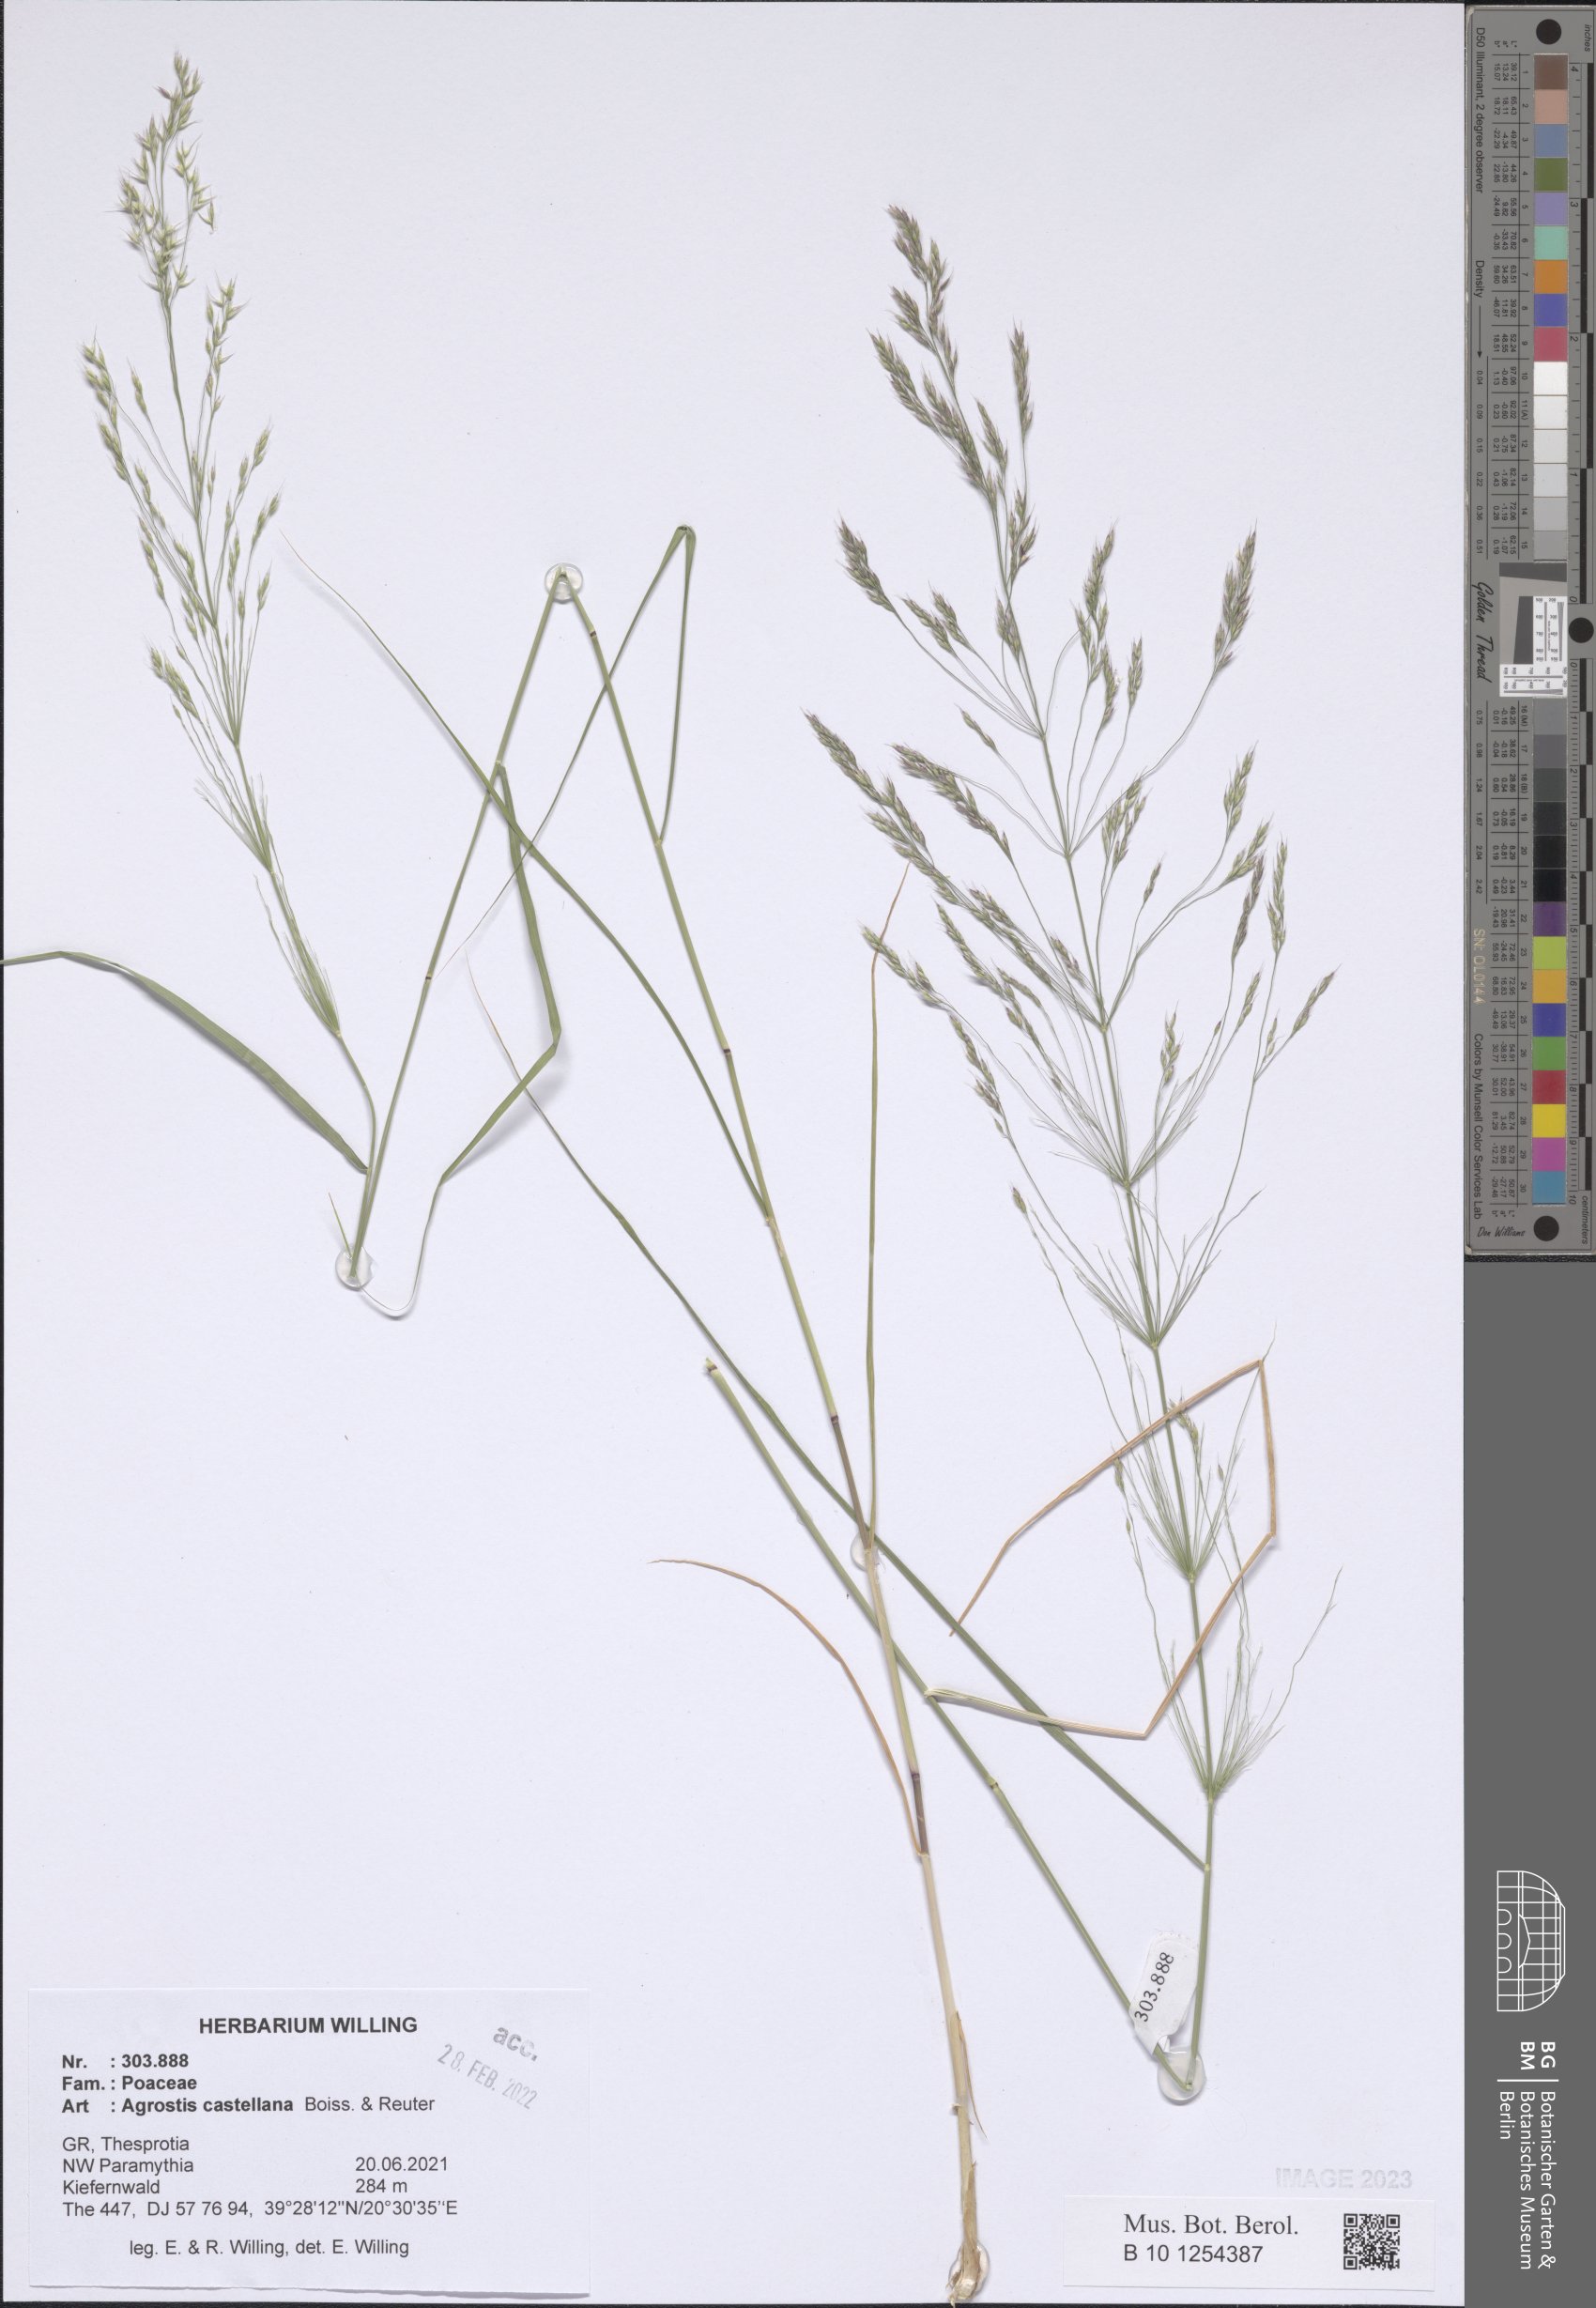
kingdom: Plantae
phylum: Tracheophyta
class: Liliopsida
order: Poales
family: Poaceae
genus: Agrostis
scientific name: Agrostis castellana
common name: Highland bent
